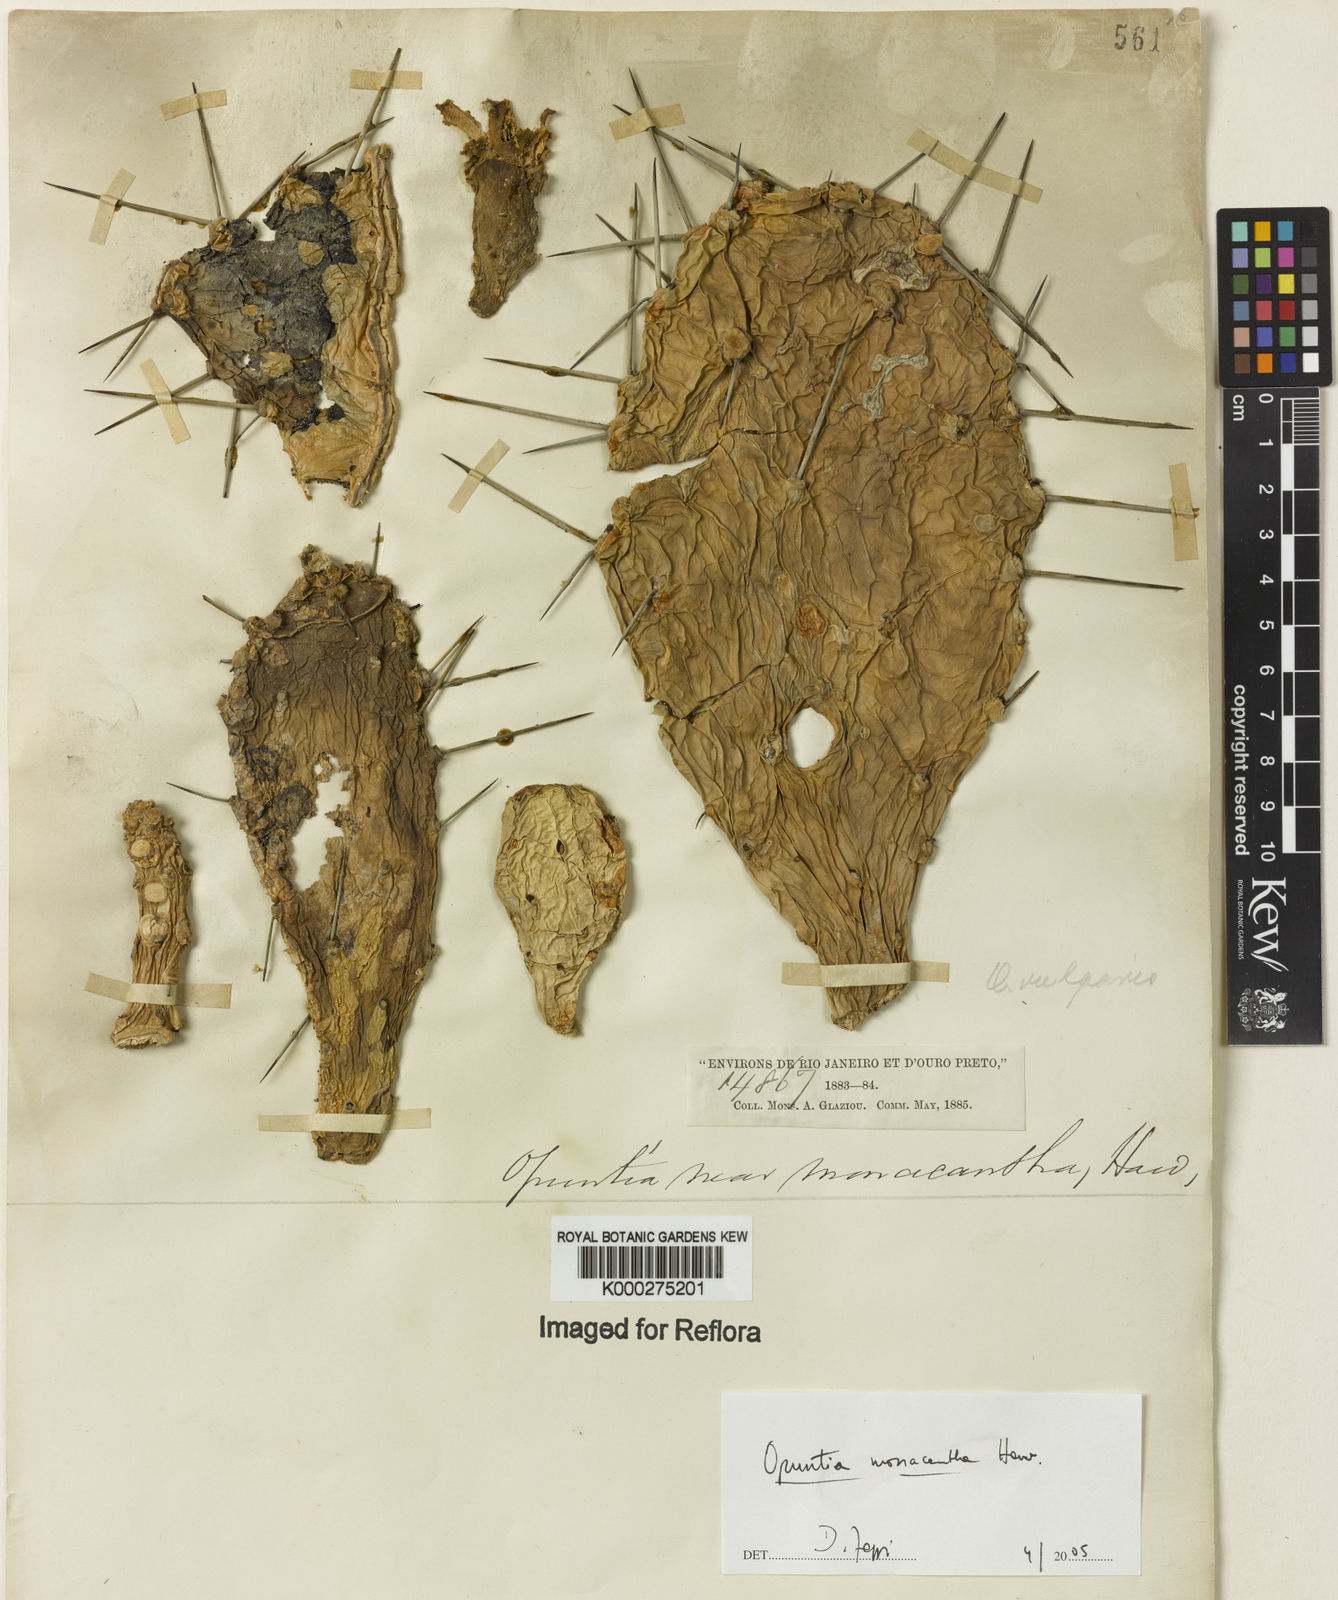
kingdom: Plantae
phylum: Tracheophyta
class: Magnoliopsida
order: Caryophyllales
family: Cactaceae
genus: Opuntia
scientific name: Opuntia monacantha
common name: Common pricklypear
